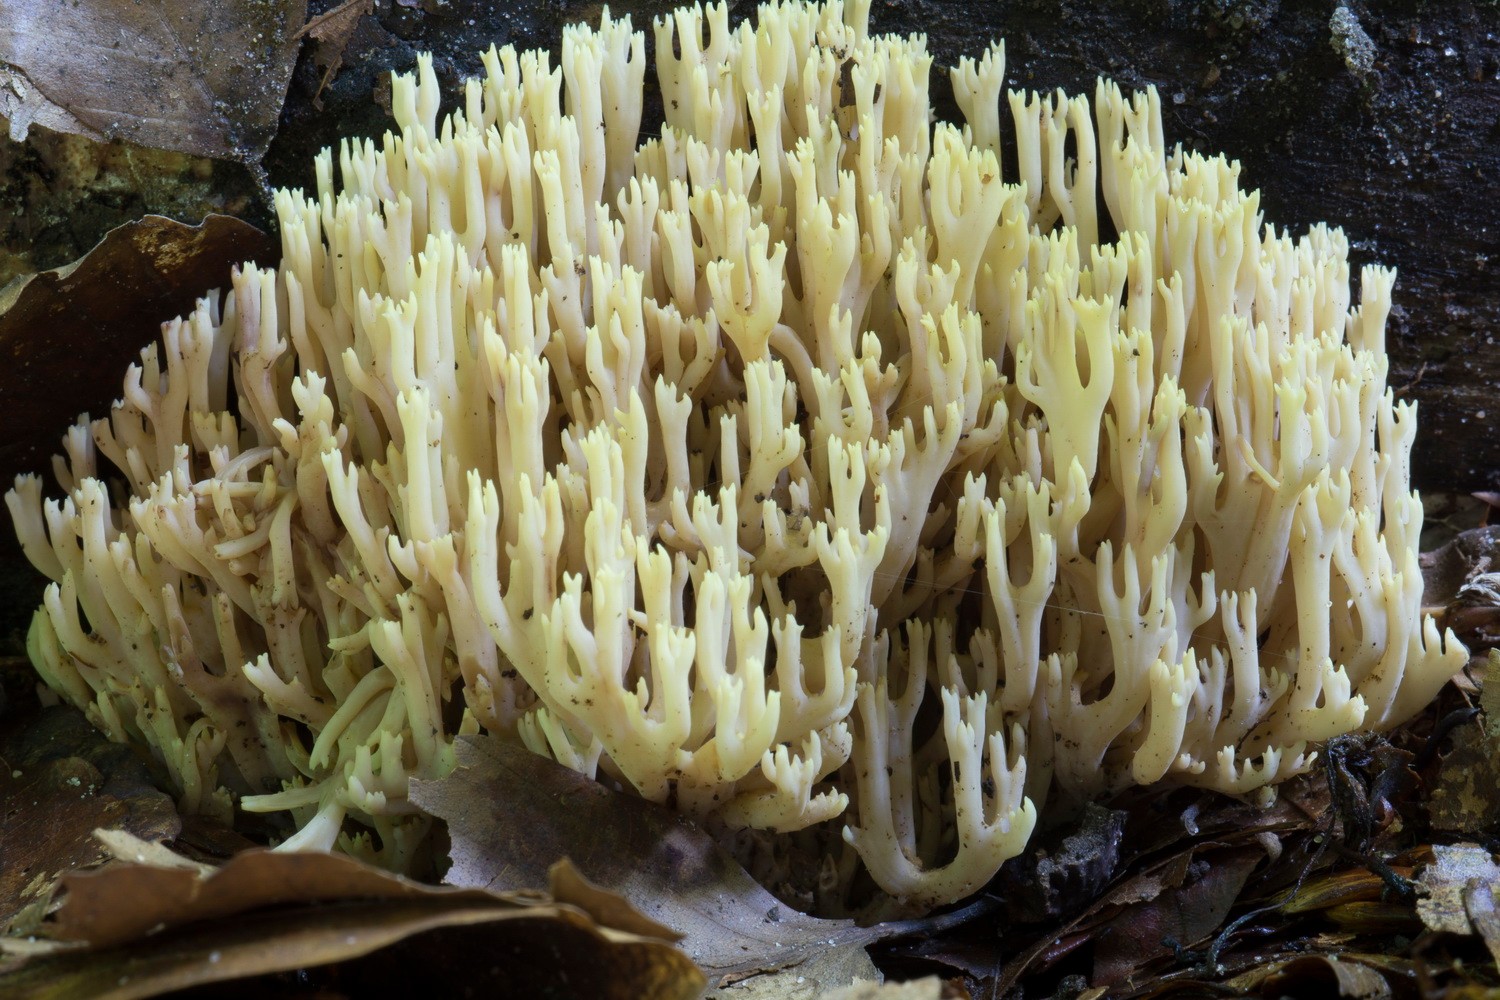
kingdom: Fungi
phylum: Basidiomycota
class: Agaricomycetes
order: Gomphales
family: Gomphaceae
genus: Ramaria
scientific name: Ramaria stricta
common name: rank koralsvamp
